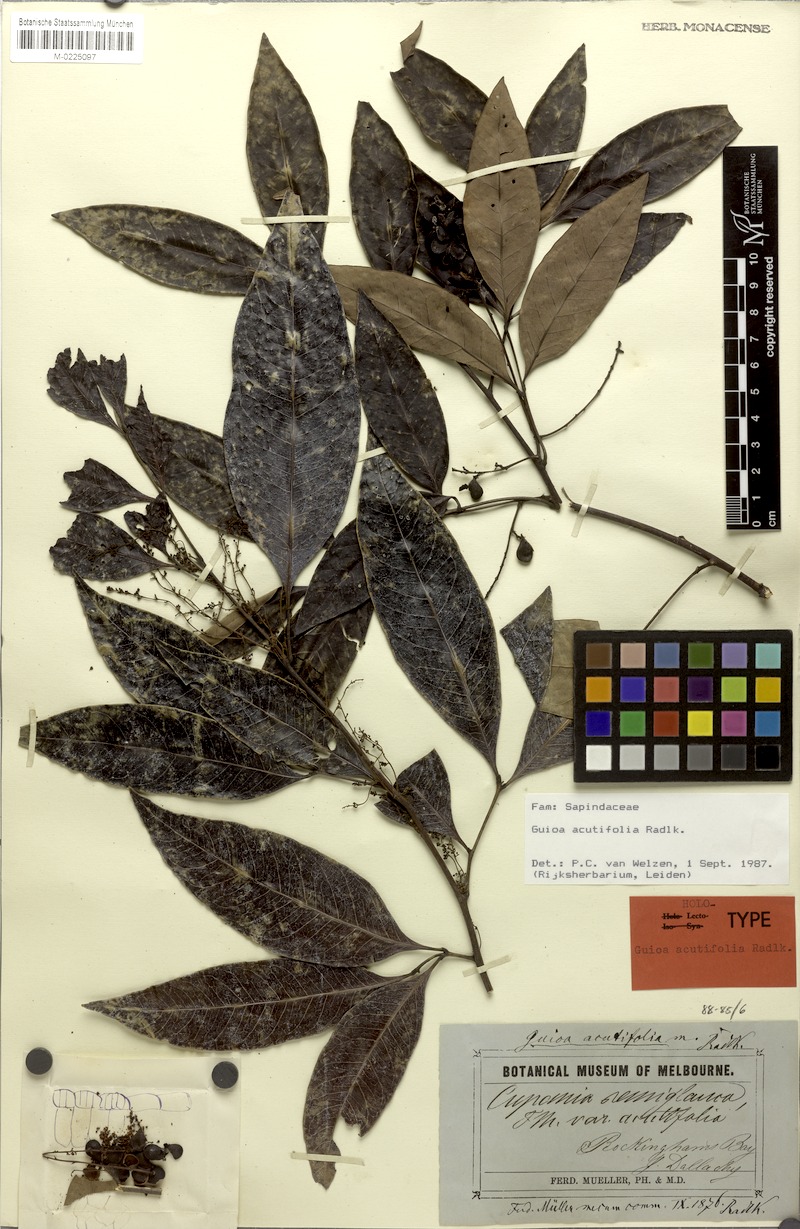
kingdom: Plantae
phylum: Tracheophyta
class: Magnoliopsida
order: Sapindales
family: Sapindaceae
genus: Guioa
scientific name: Guioa acutifolia
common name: Northern guioa
